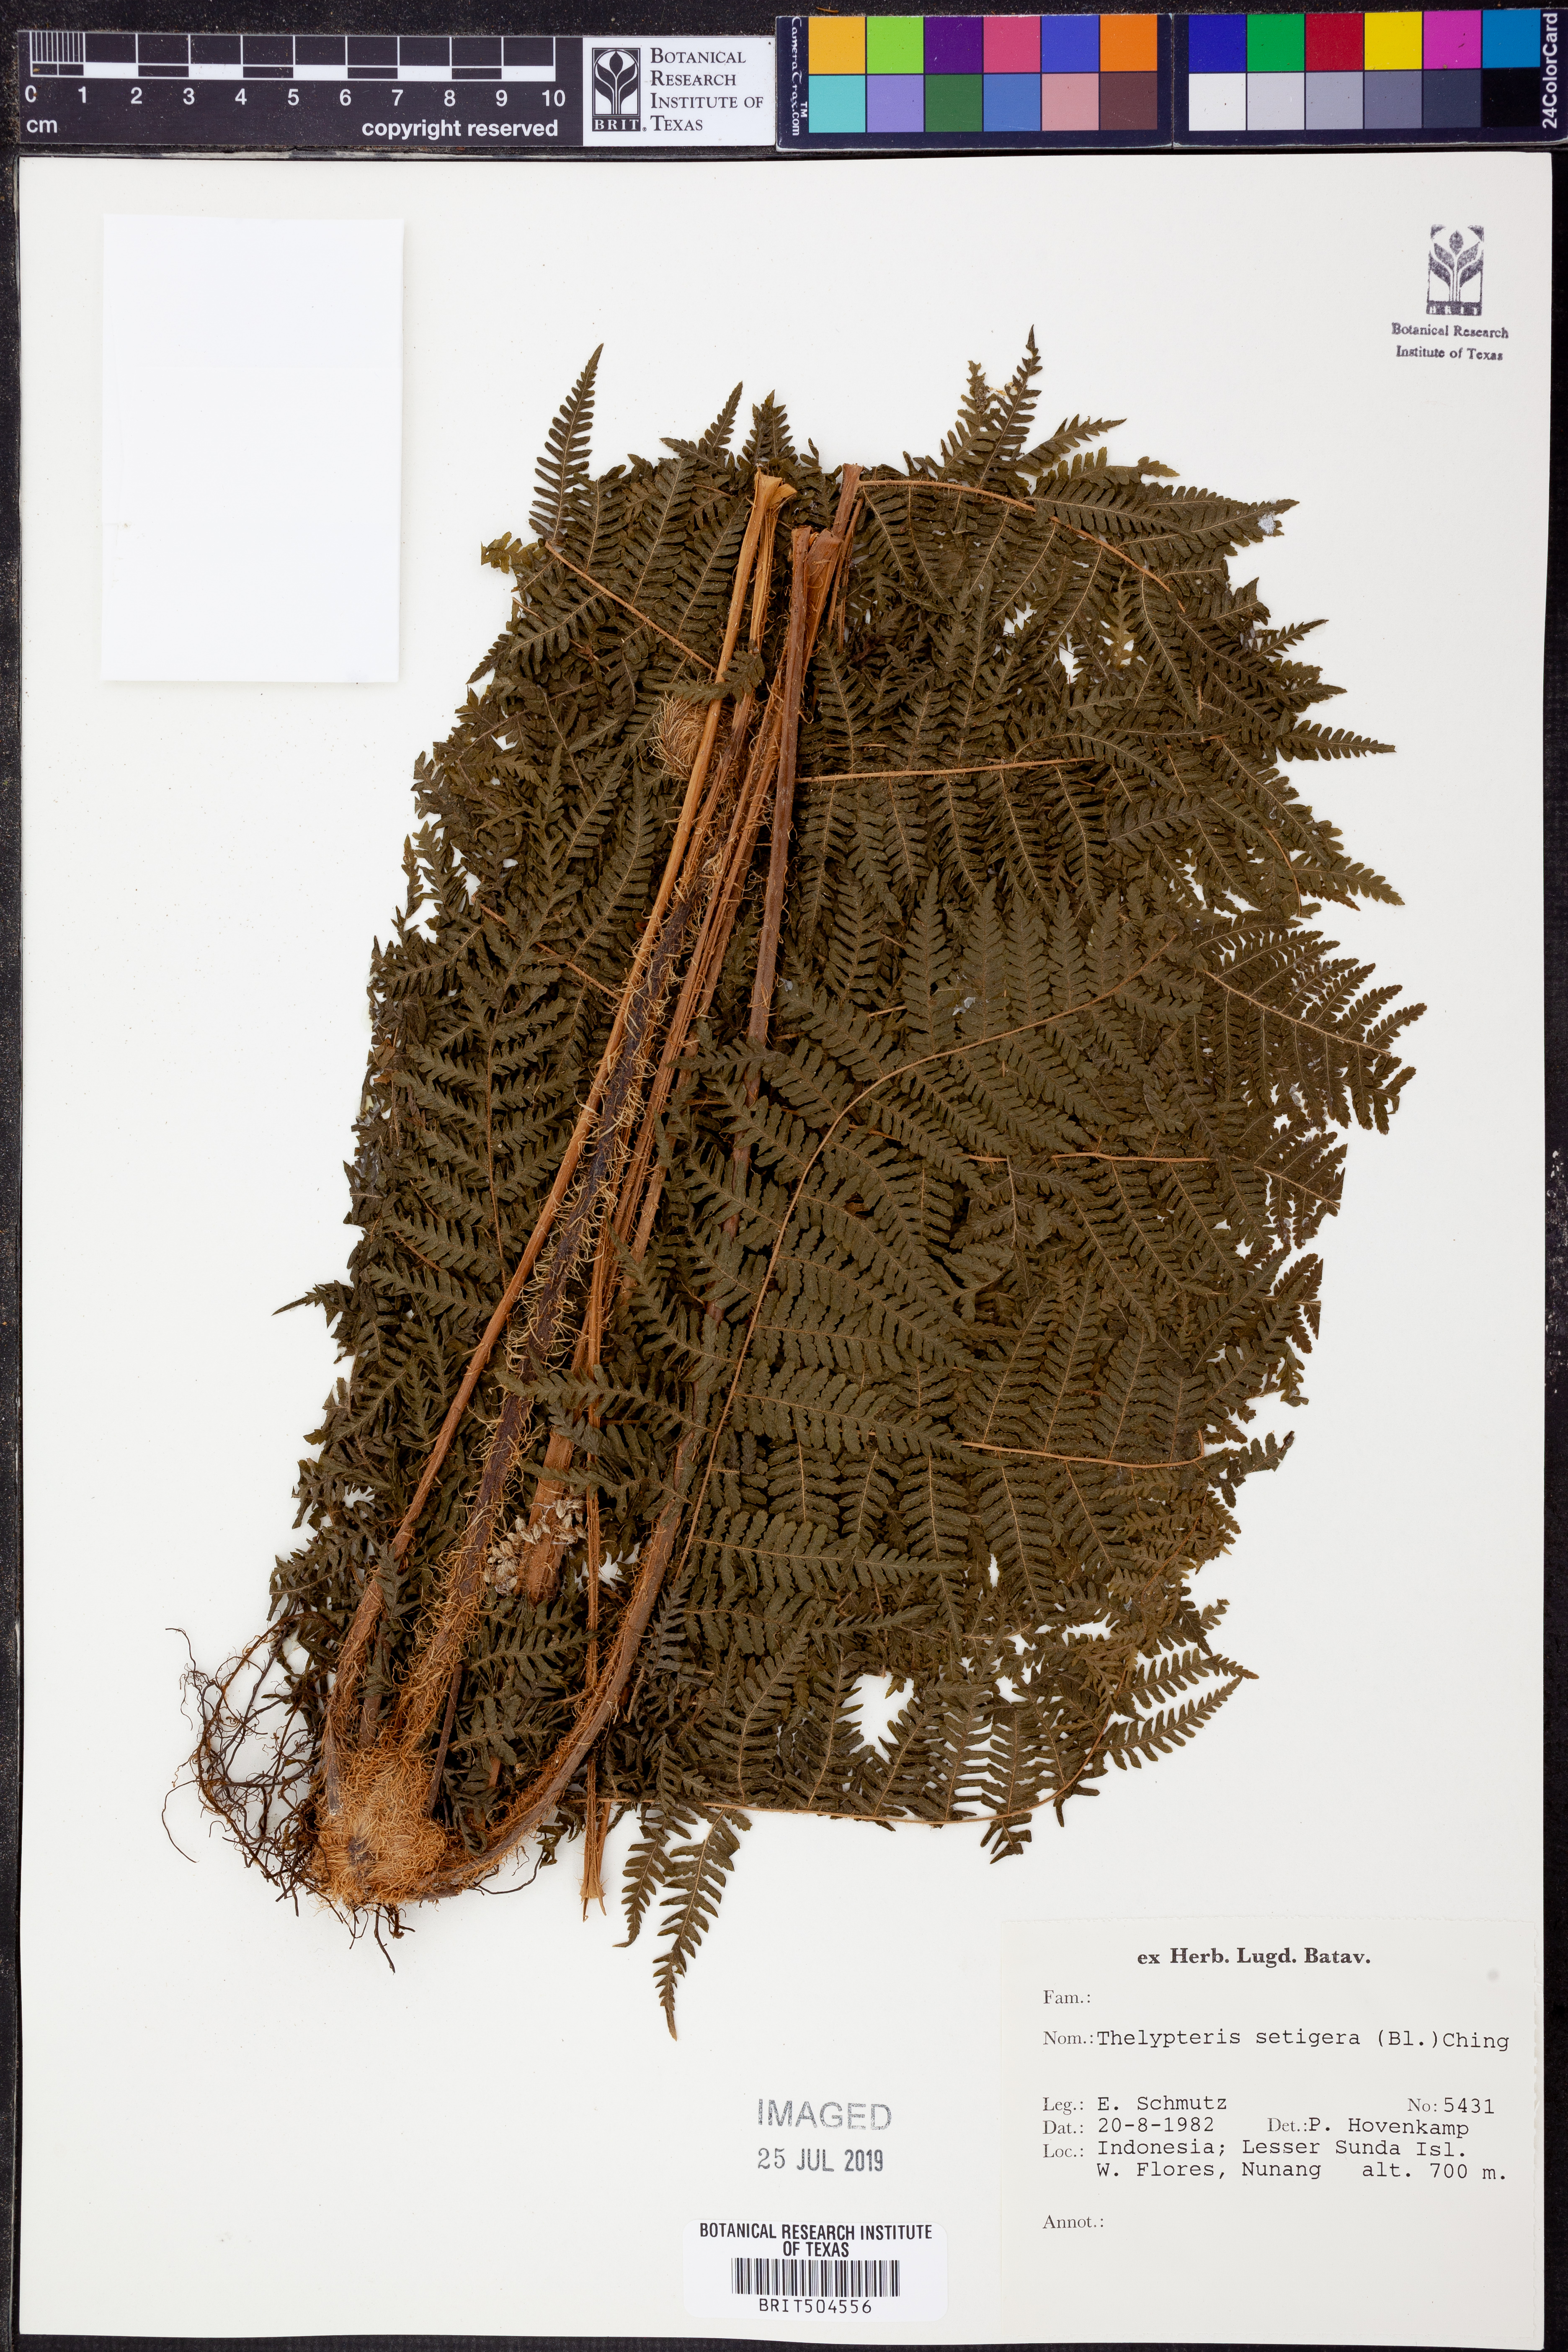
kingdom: Plantae
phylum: Tracheophyta
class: Polypodiopsida
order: Polypodiales
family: Thelypteridaceae
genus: Macrothelypteris
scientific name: Macrothelypteris torresiana
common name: Swordfern
